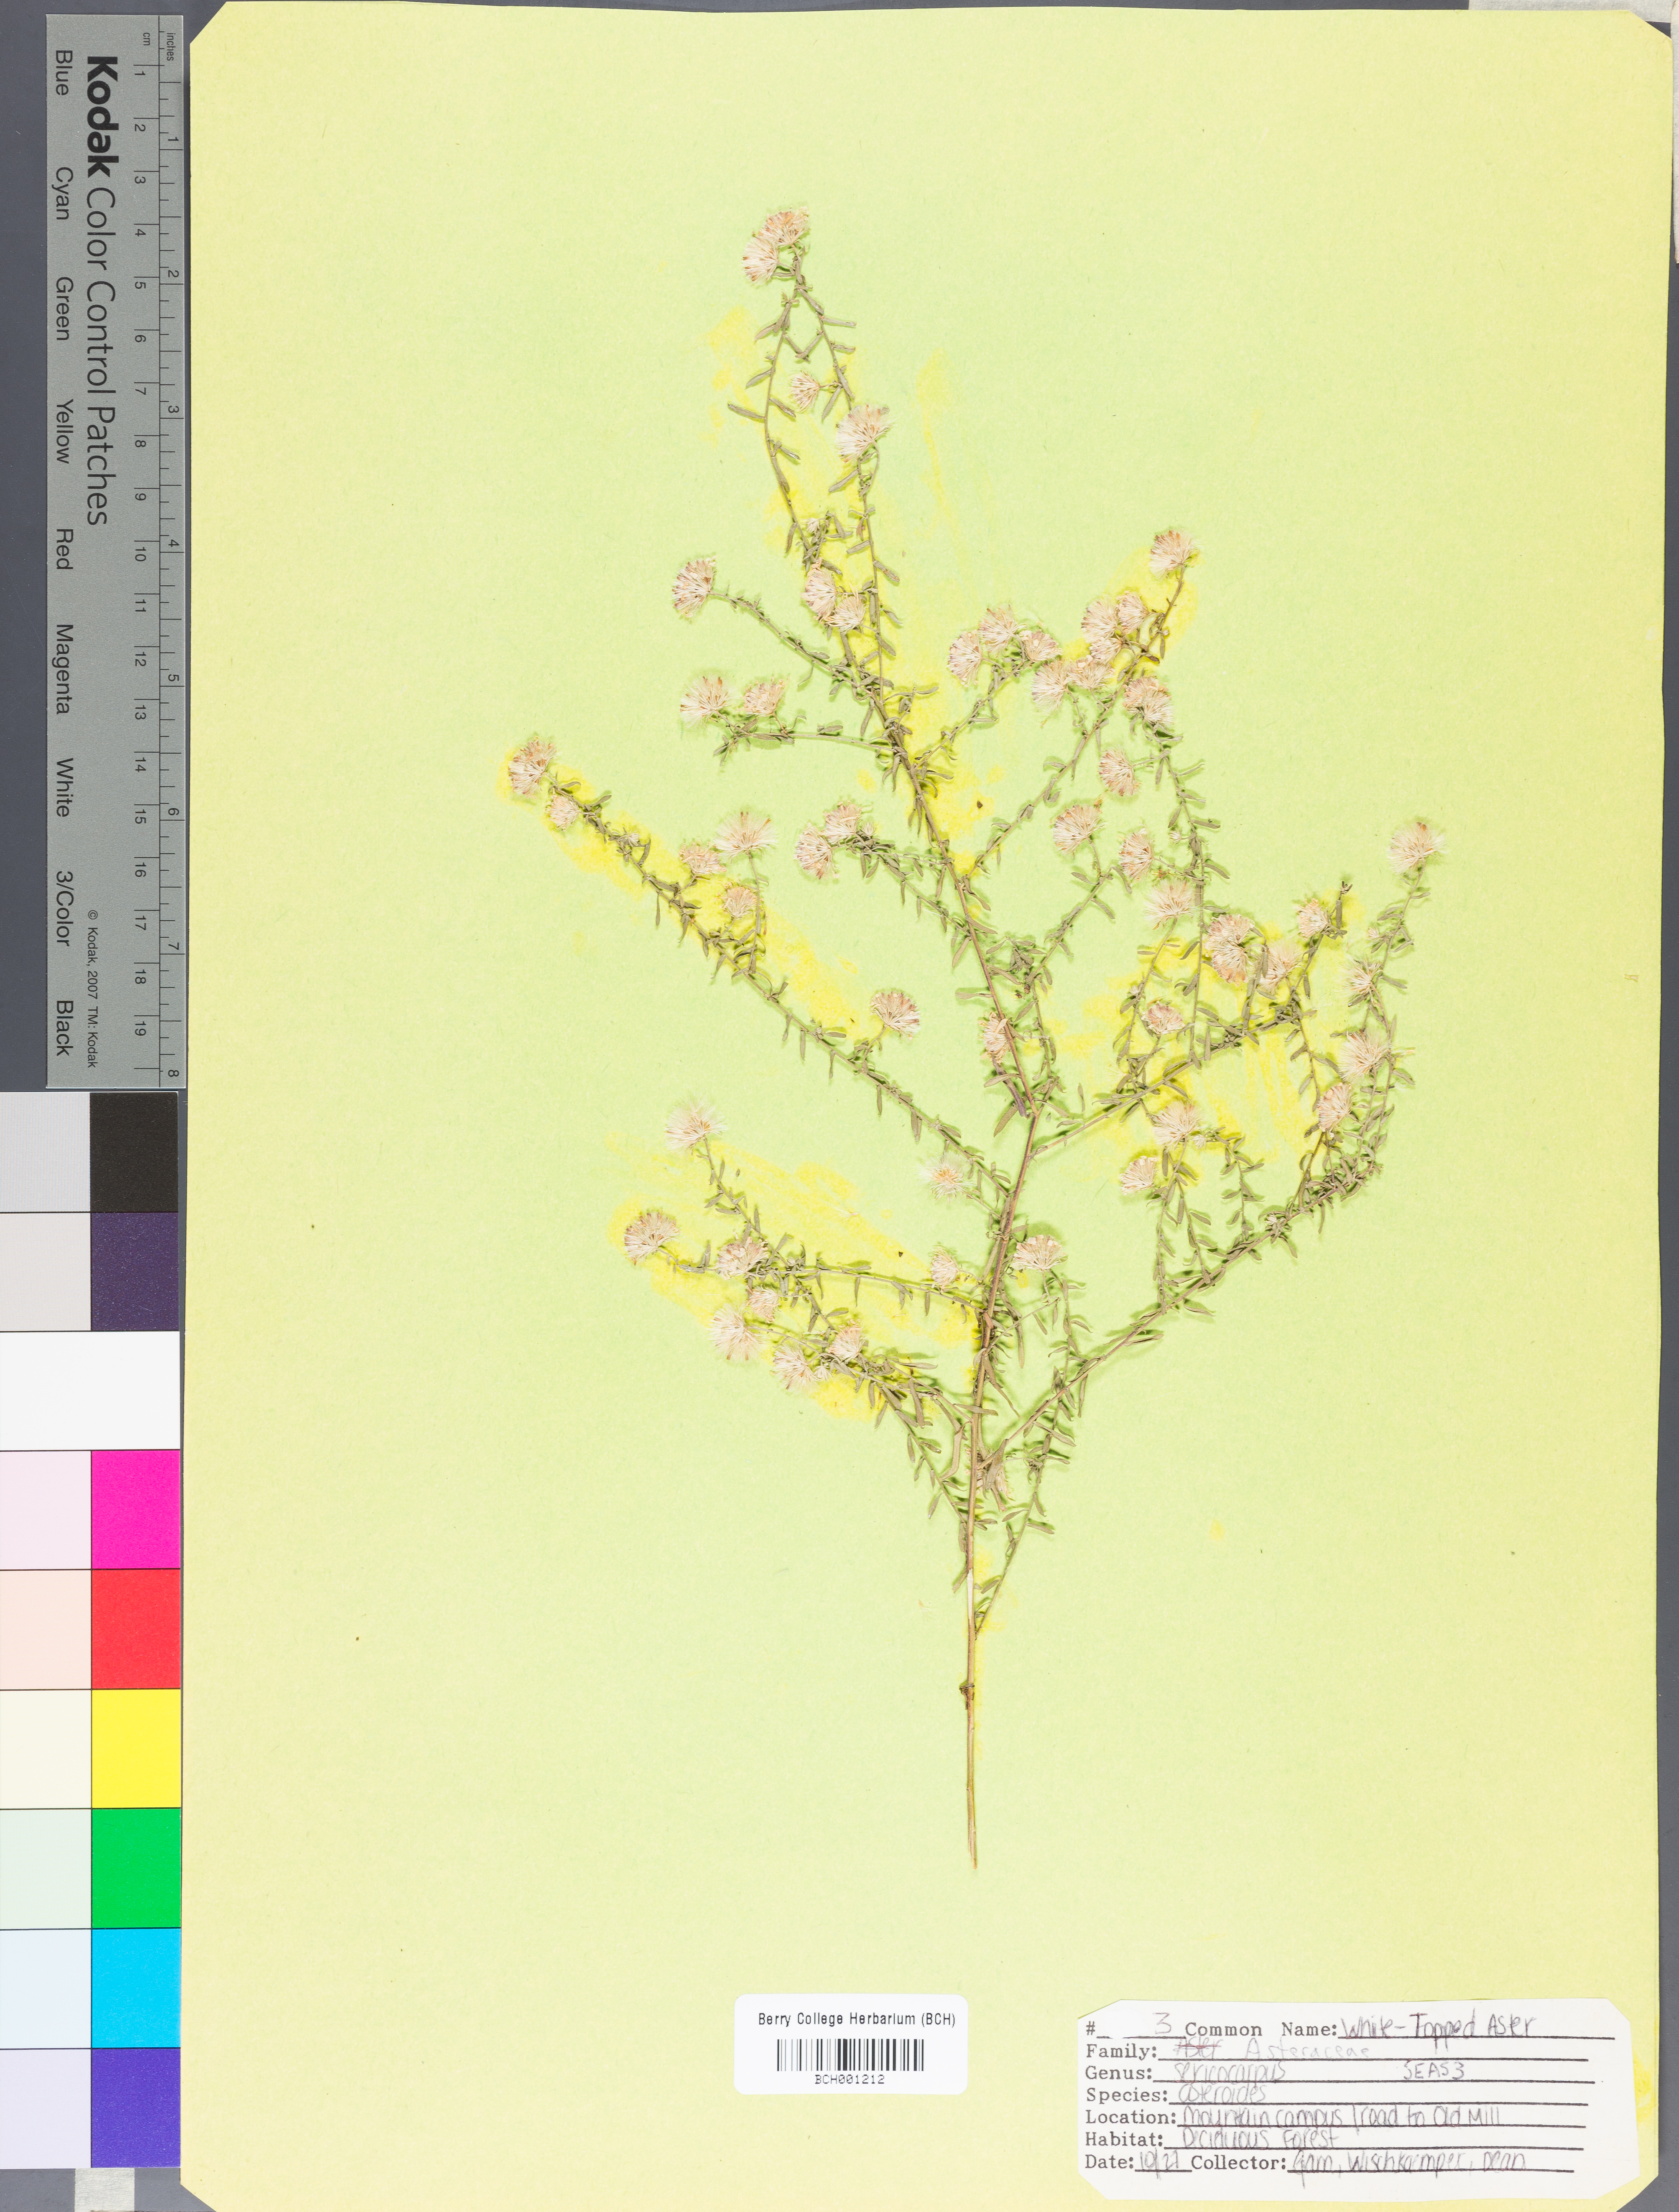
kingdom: Plantae
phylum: Tracheophyta
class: Magnoliopsida
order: Asterales
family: Asteraceae
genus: Sericocarpus
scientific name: Sericocarpus asteroides
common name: Toothed white-top aster
